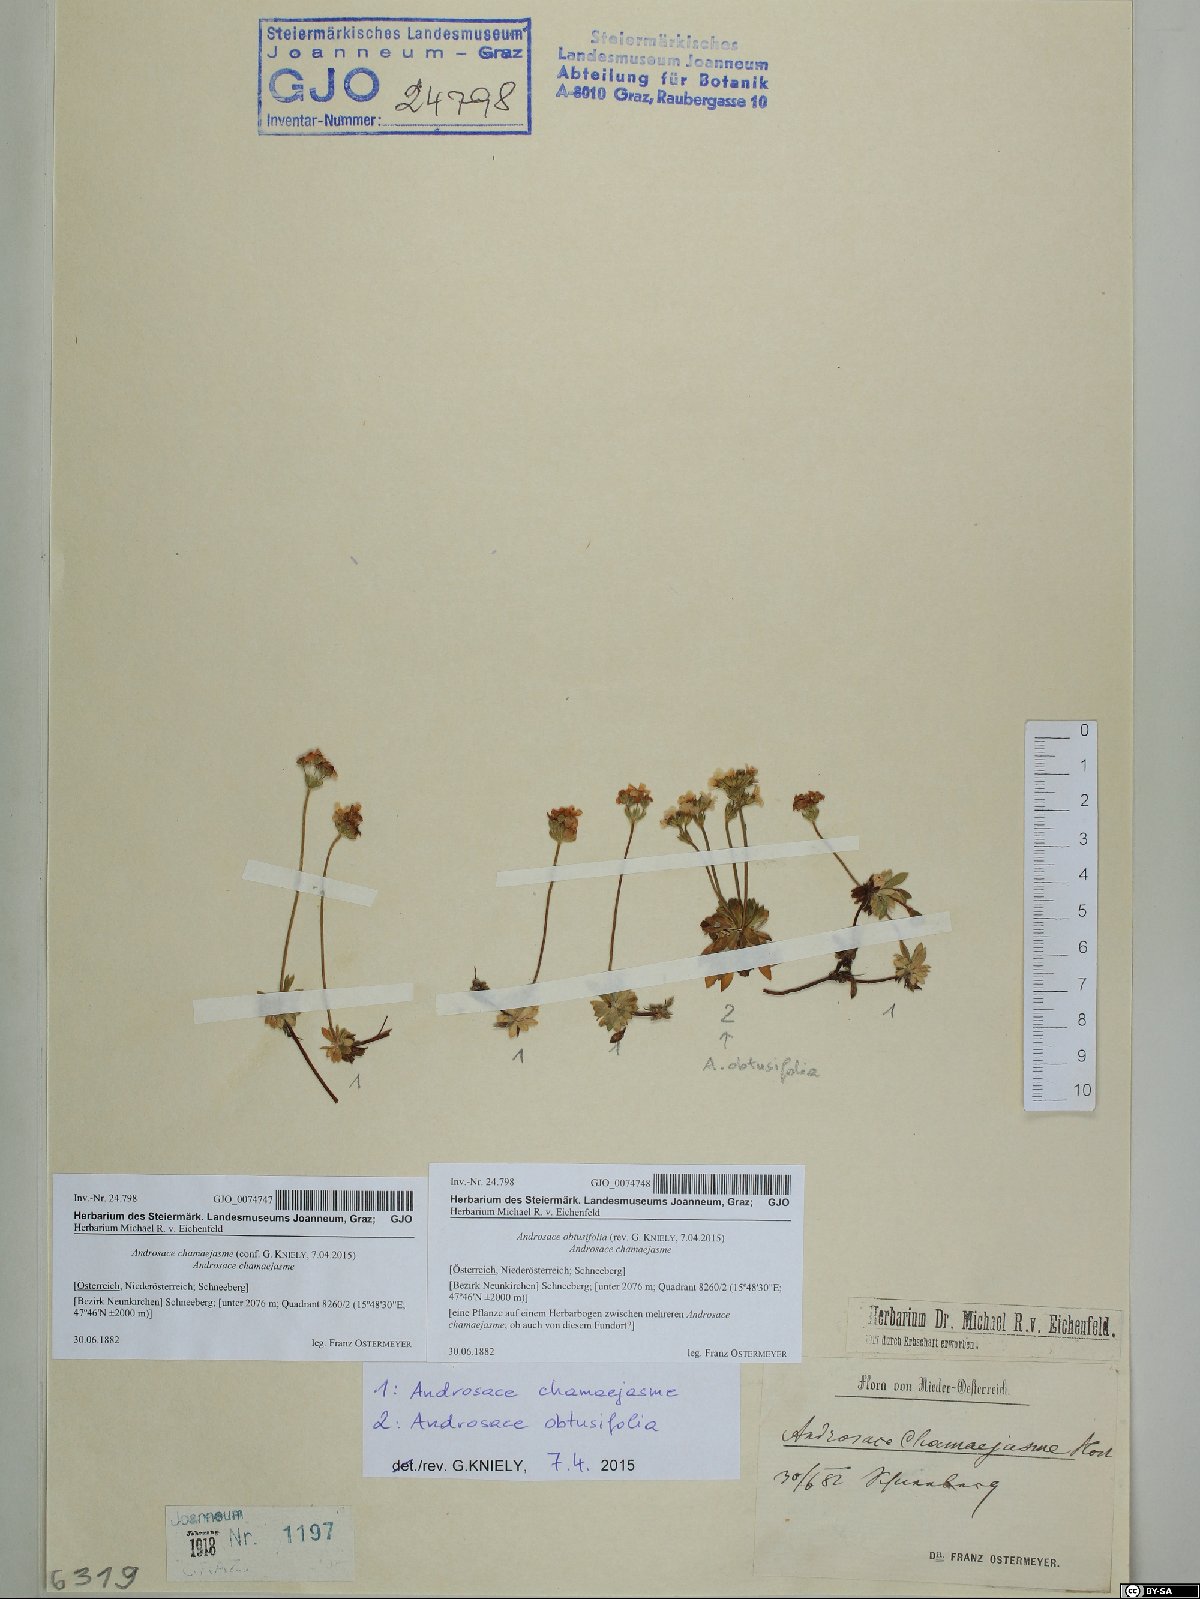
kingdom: Plantae
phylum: Tracheophyta
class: Magnoliopsida
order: Ericales
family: Primulaceae
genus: Androsace
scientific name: Androsace obtusifolia
